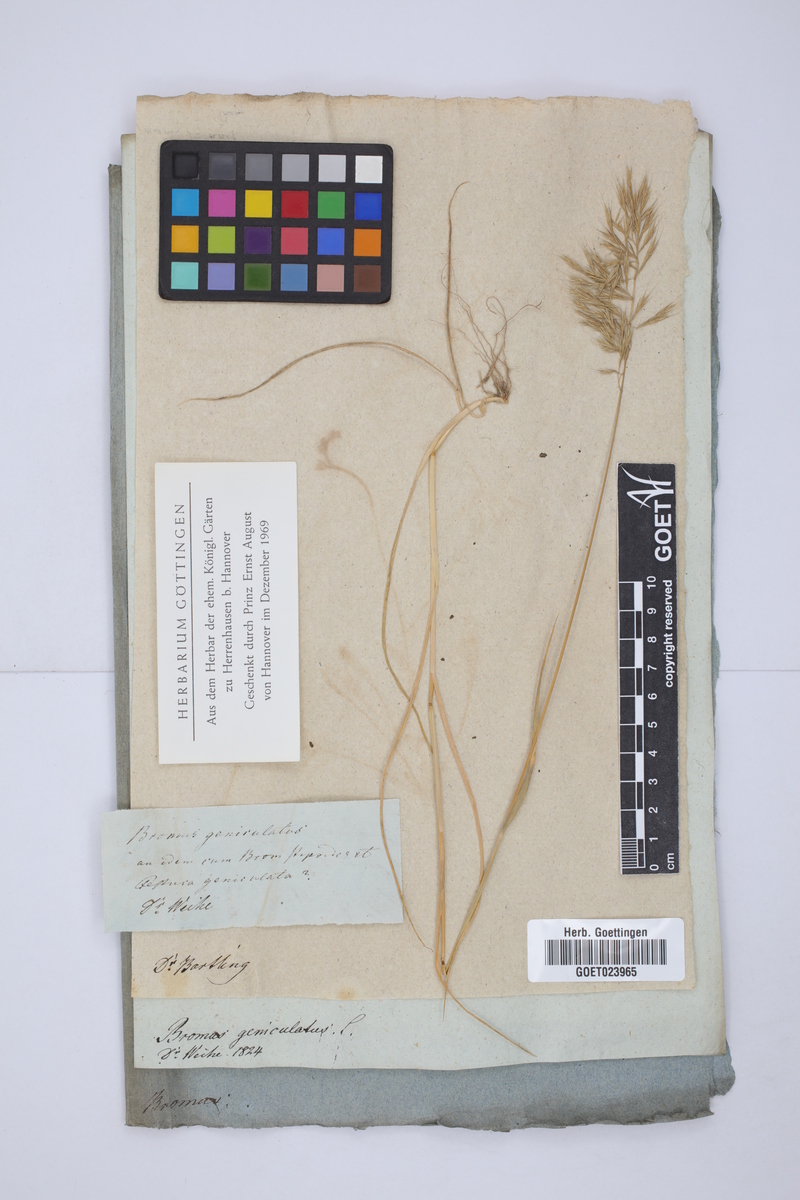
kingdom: Plantae
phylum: Tracheophyta
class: Liliopsida
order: Poales
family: Poaceae
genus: Festuca
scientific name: Festuca geniculata
